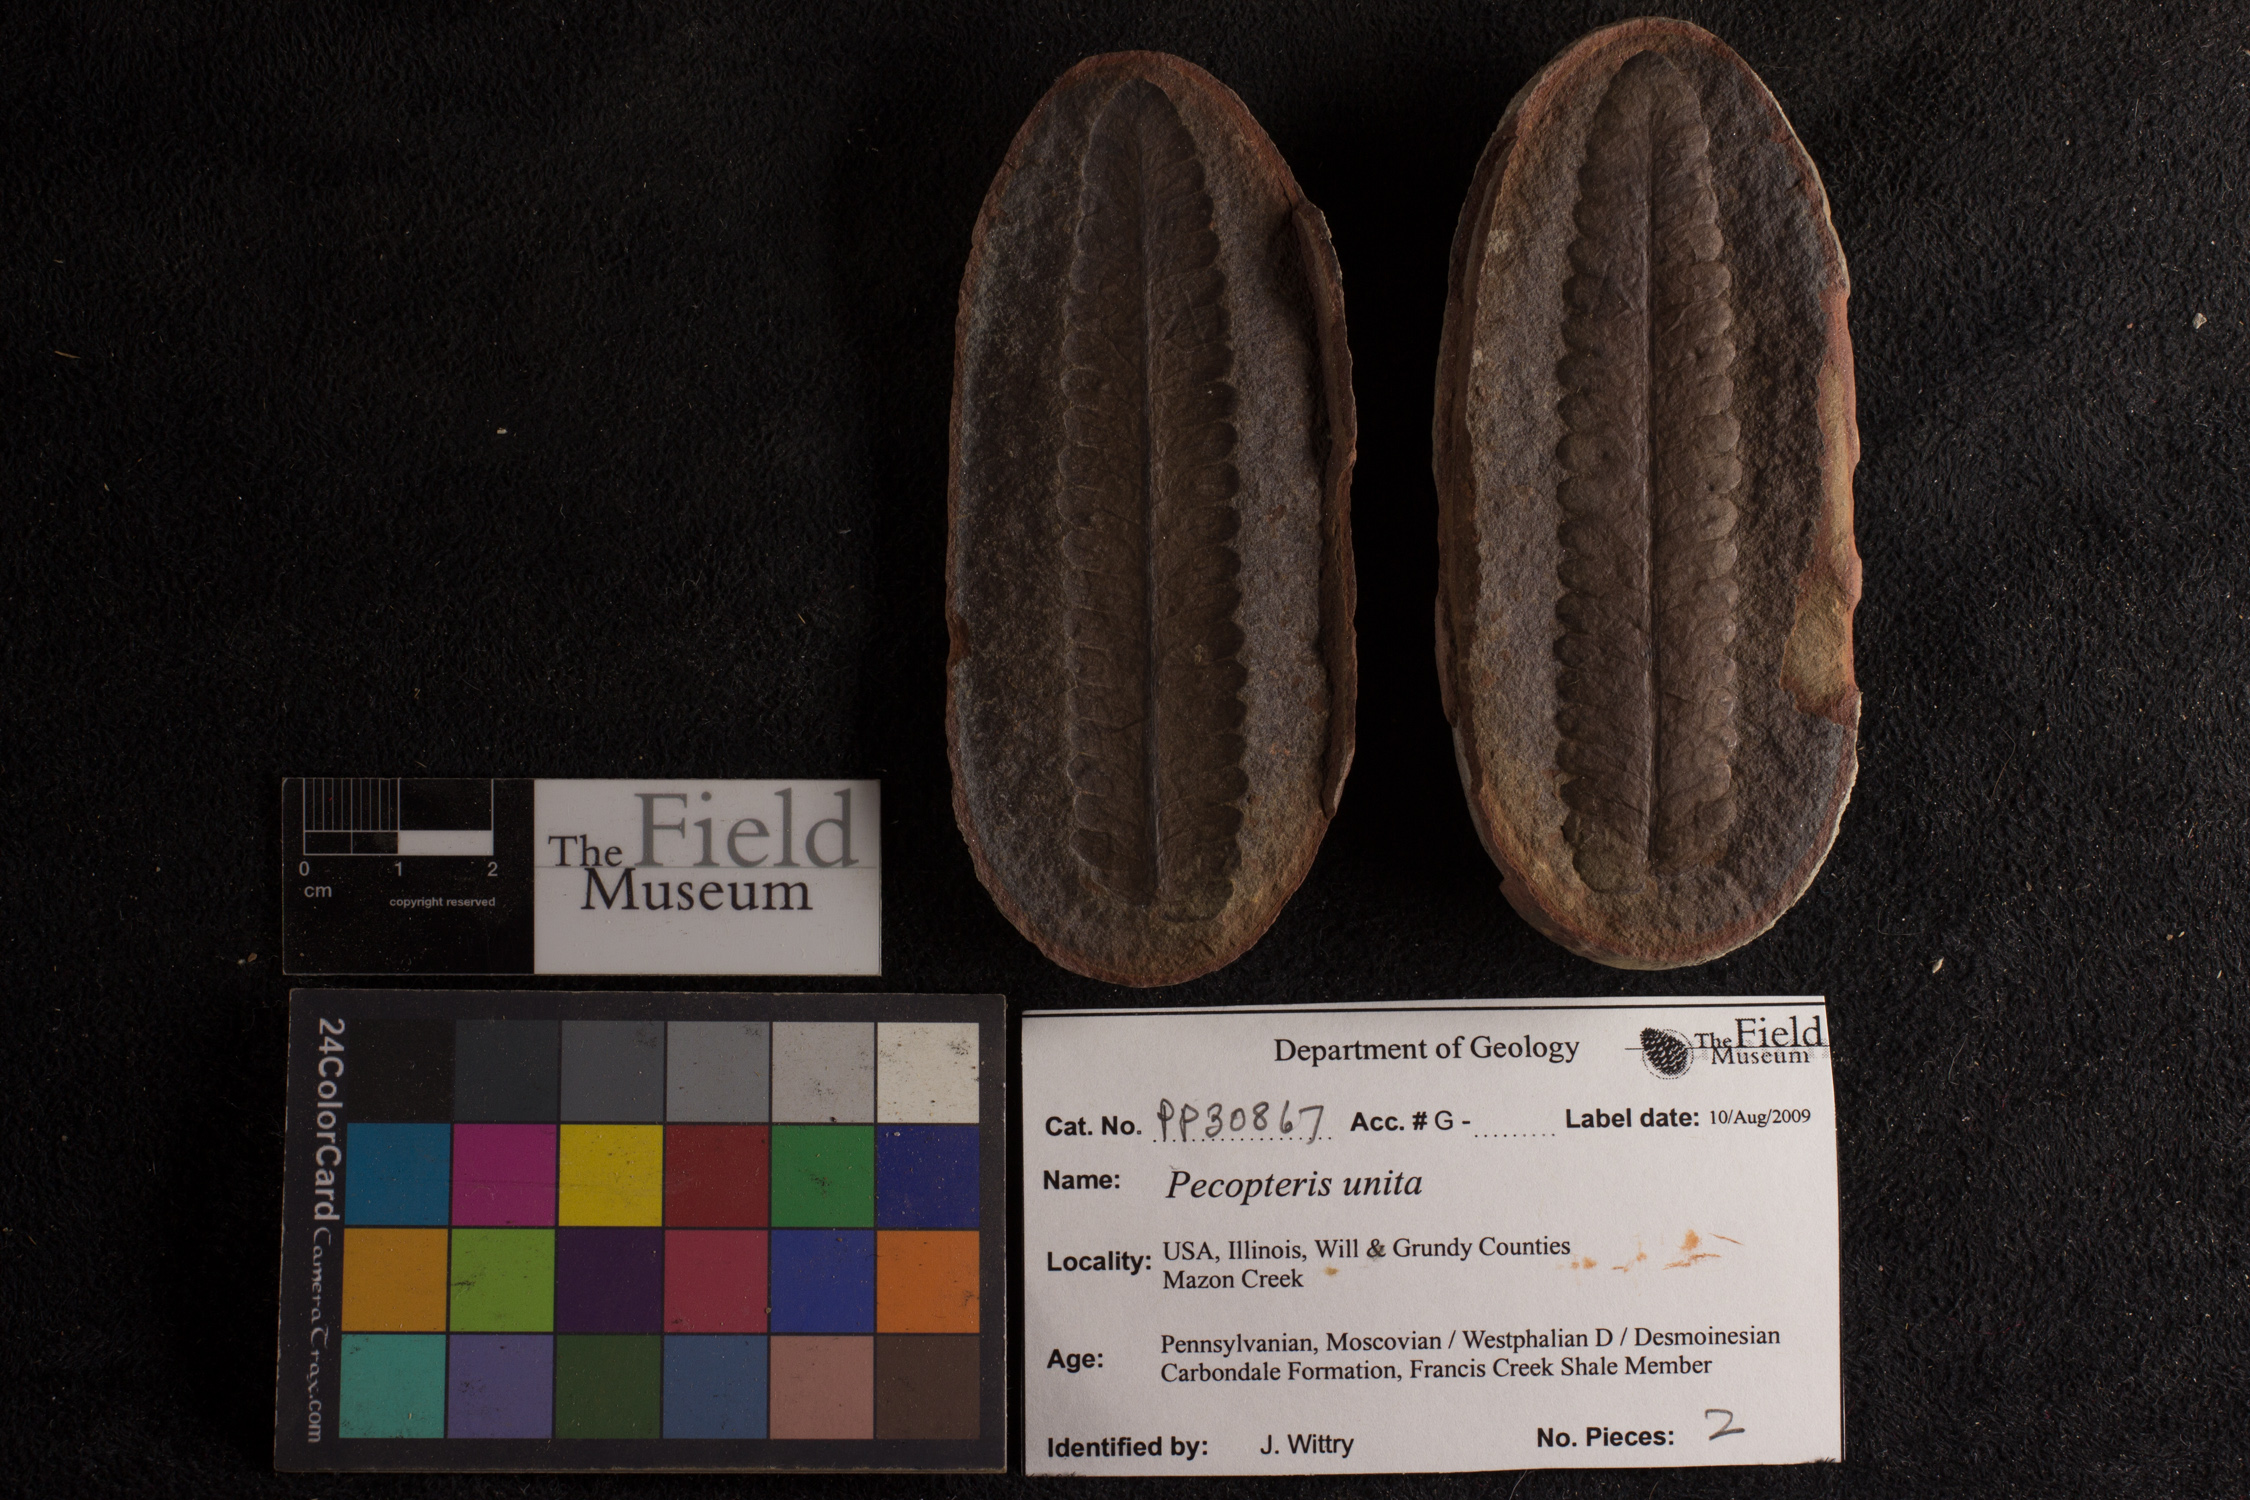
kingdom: Plantae
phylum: Tracheophyta
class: Polypodiopsida
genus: Diplazites
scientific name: Diplazites
